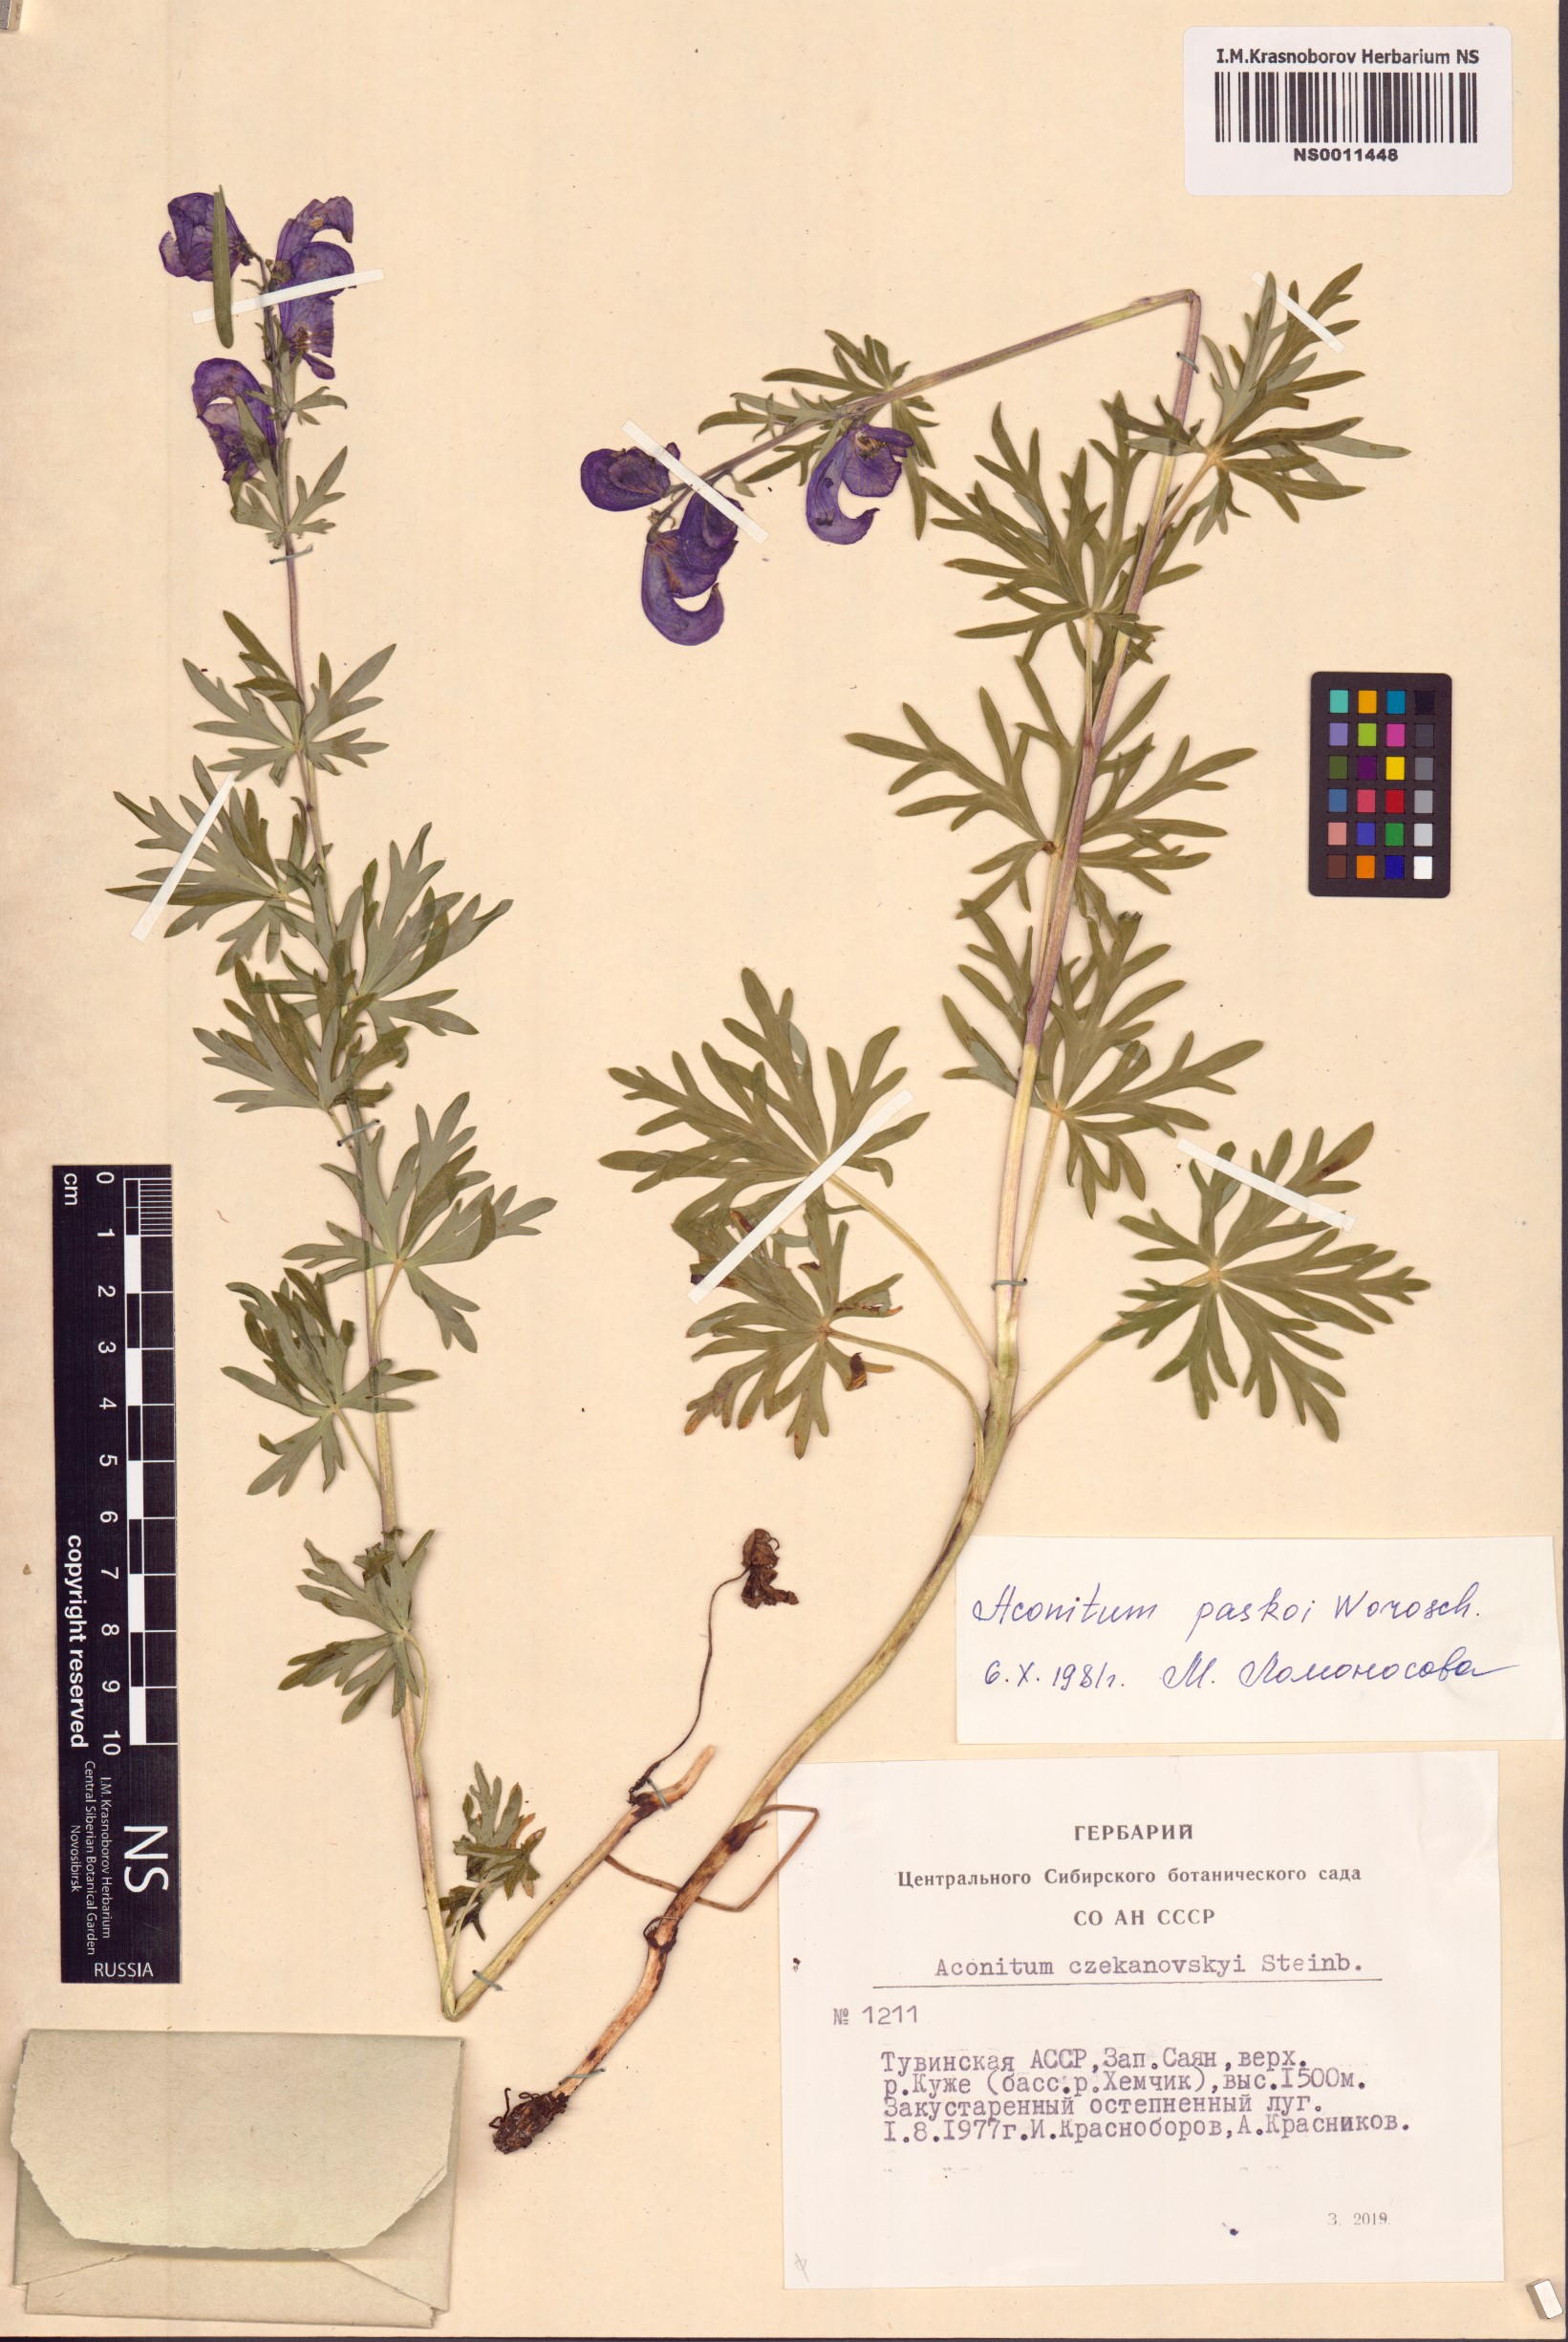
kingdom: Plantae
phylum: Tracheophyta
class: Magnoliopsida
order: Ranunculales
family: Ranunculaceae
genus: Aconitum
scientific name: Aconitum pascoi
